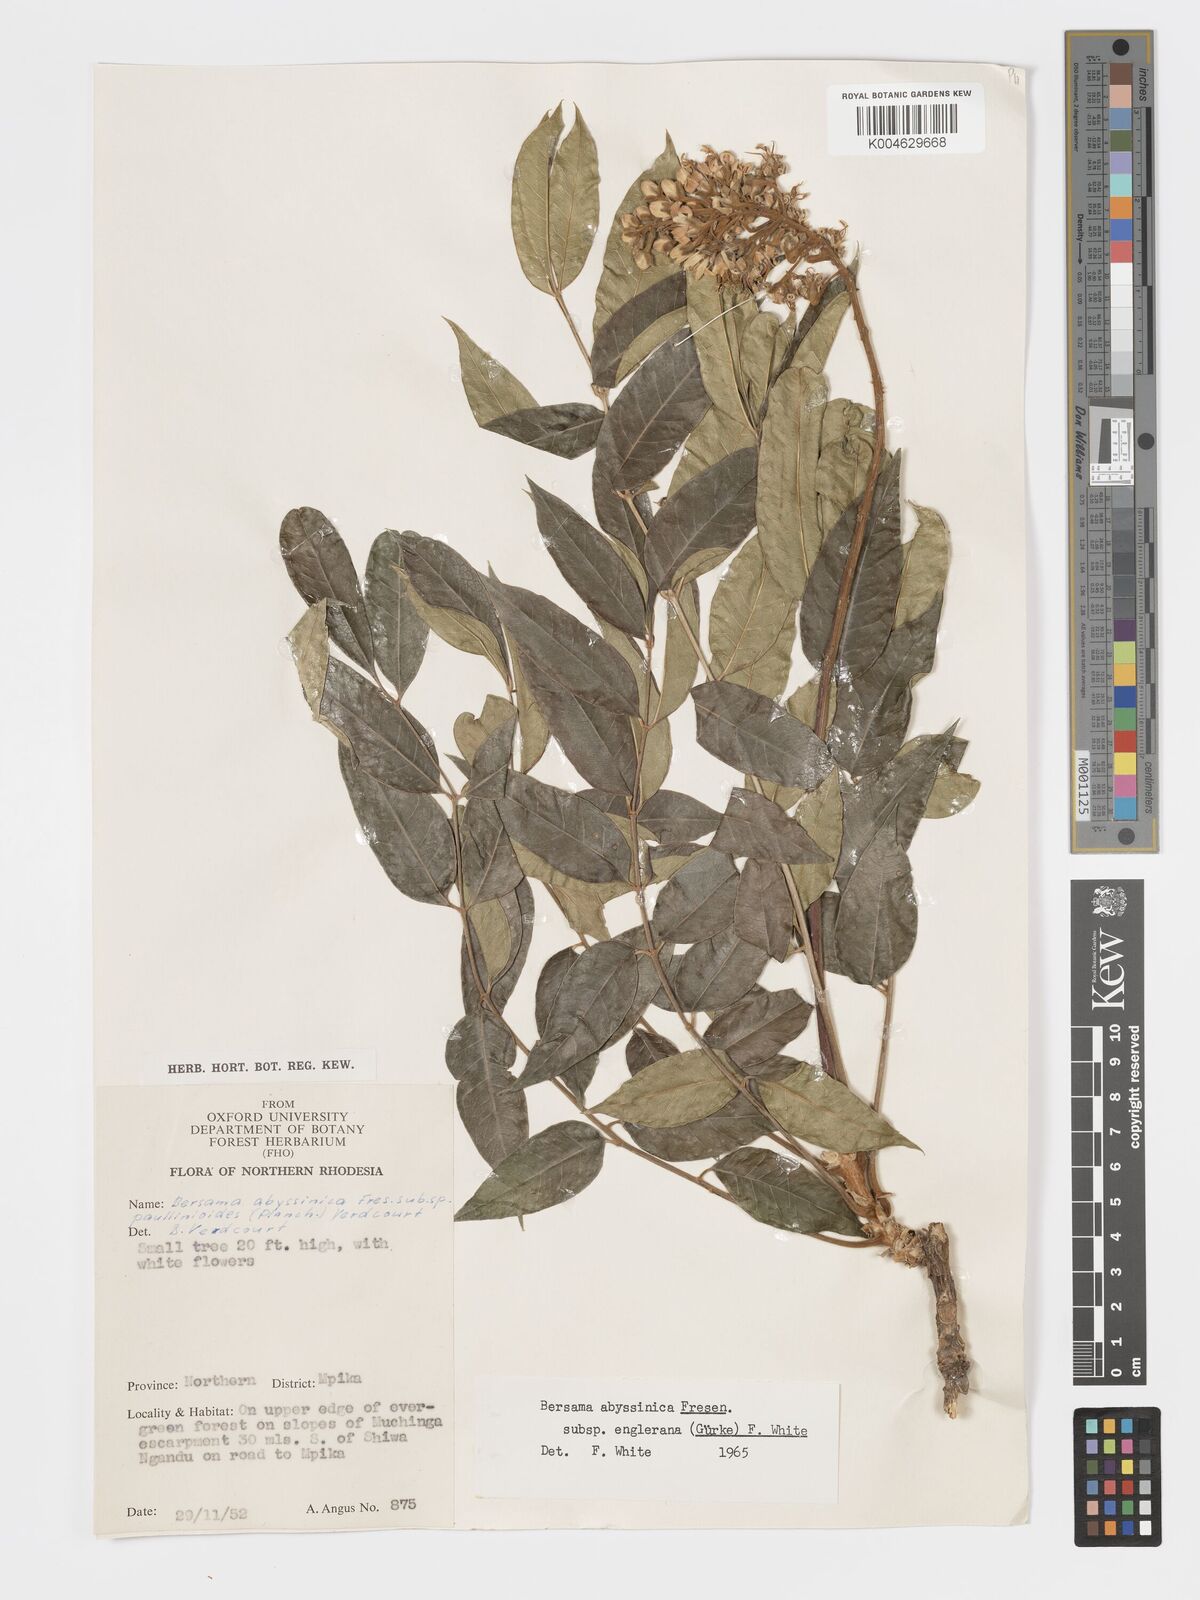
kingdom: Plantae
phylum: Tracheophyta
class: Magnoliopsida
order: Geraniales
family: Melianthaceae
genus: Bersama
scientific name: Bersama abyssinica
